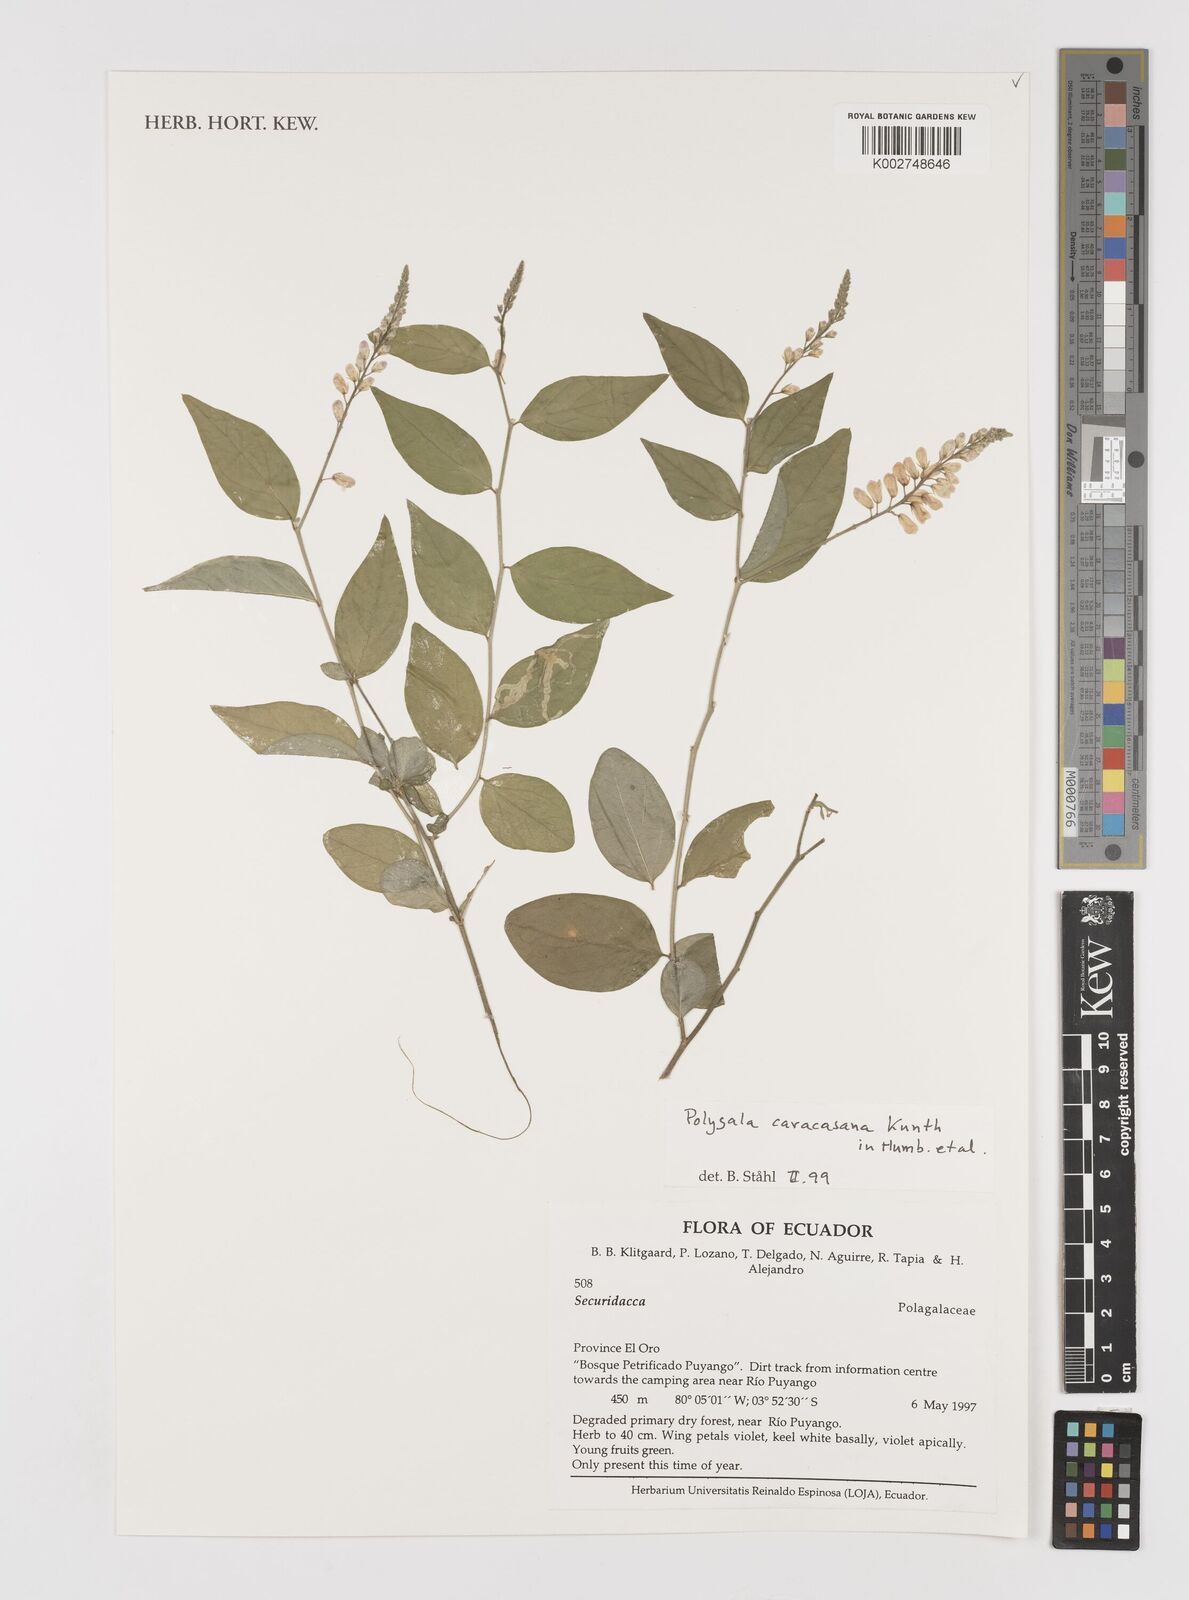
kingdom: Plantae
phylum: Tracheophyta
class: Magnoliopsida
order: Fabales
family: Polygalaceae
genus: Hebecarpa
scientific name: Hebecarpa caracasana
